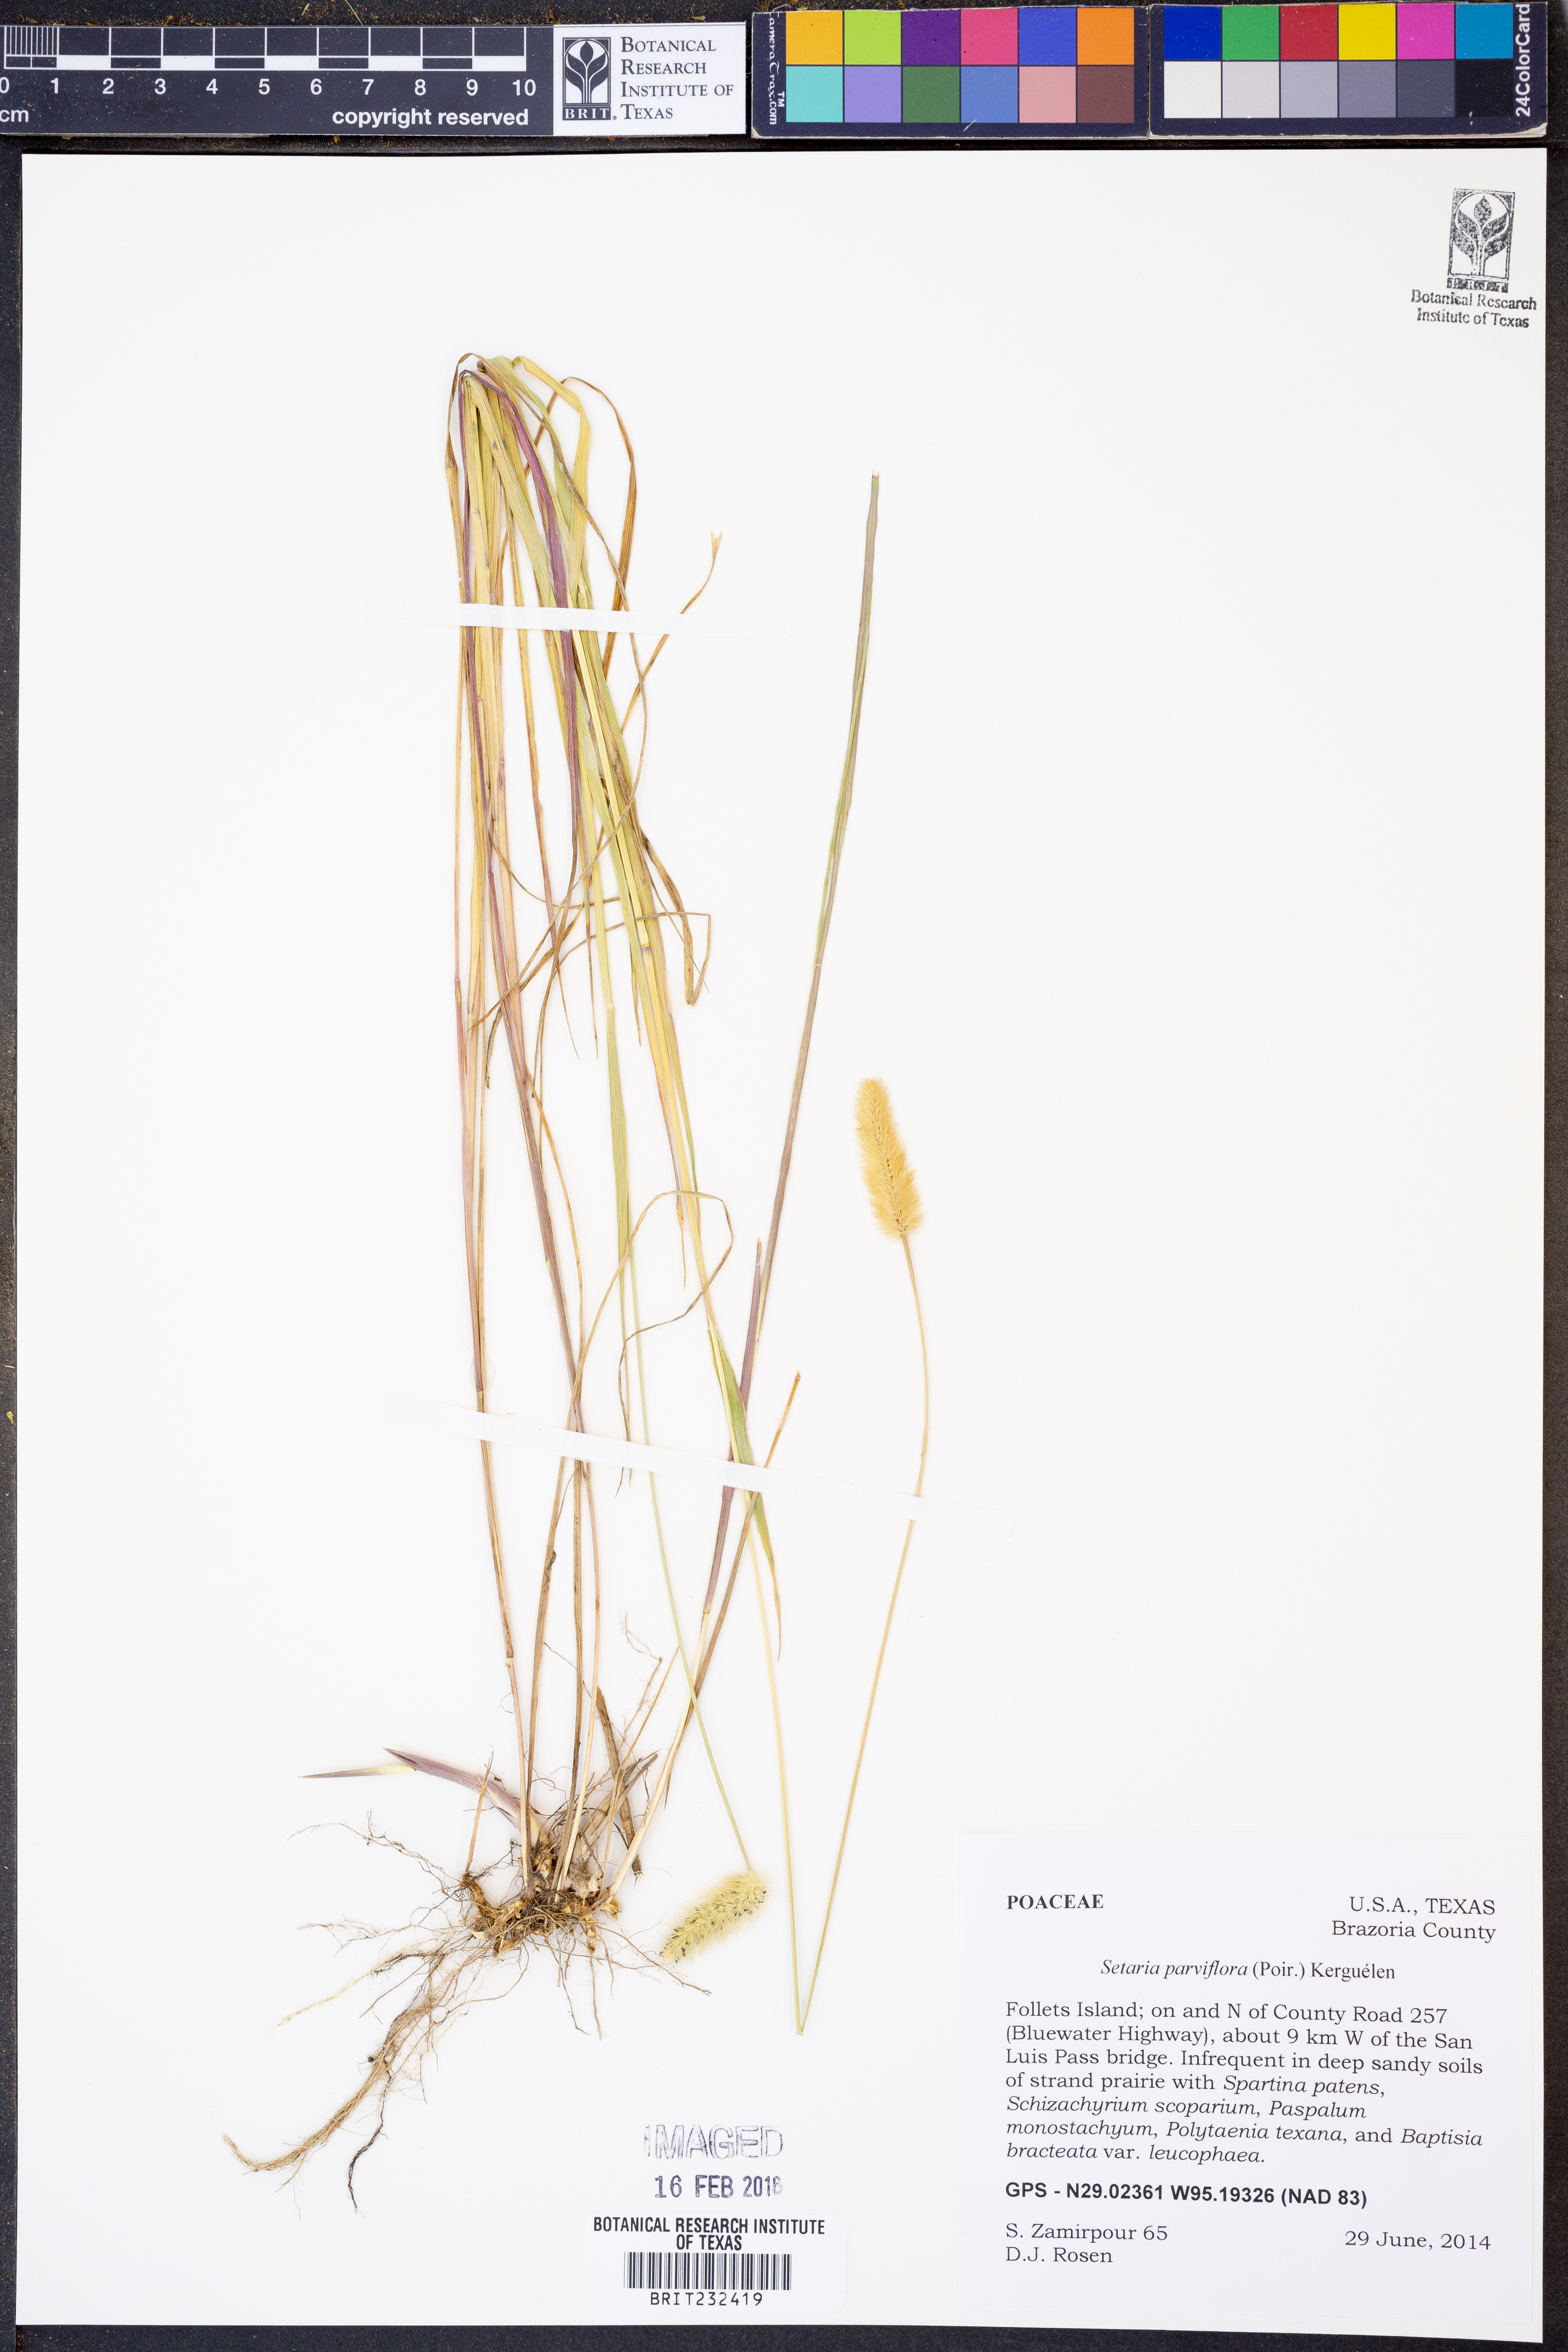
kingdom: Plantae
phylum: Tracheophyta
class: Liliopsida
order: Poales
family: Poaceae
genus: Setaria
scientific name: Setaria parviflora
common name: Knotroot bristle-grass
